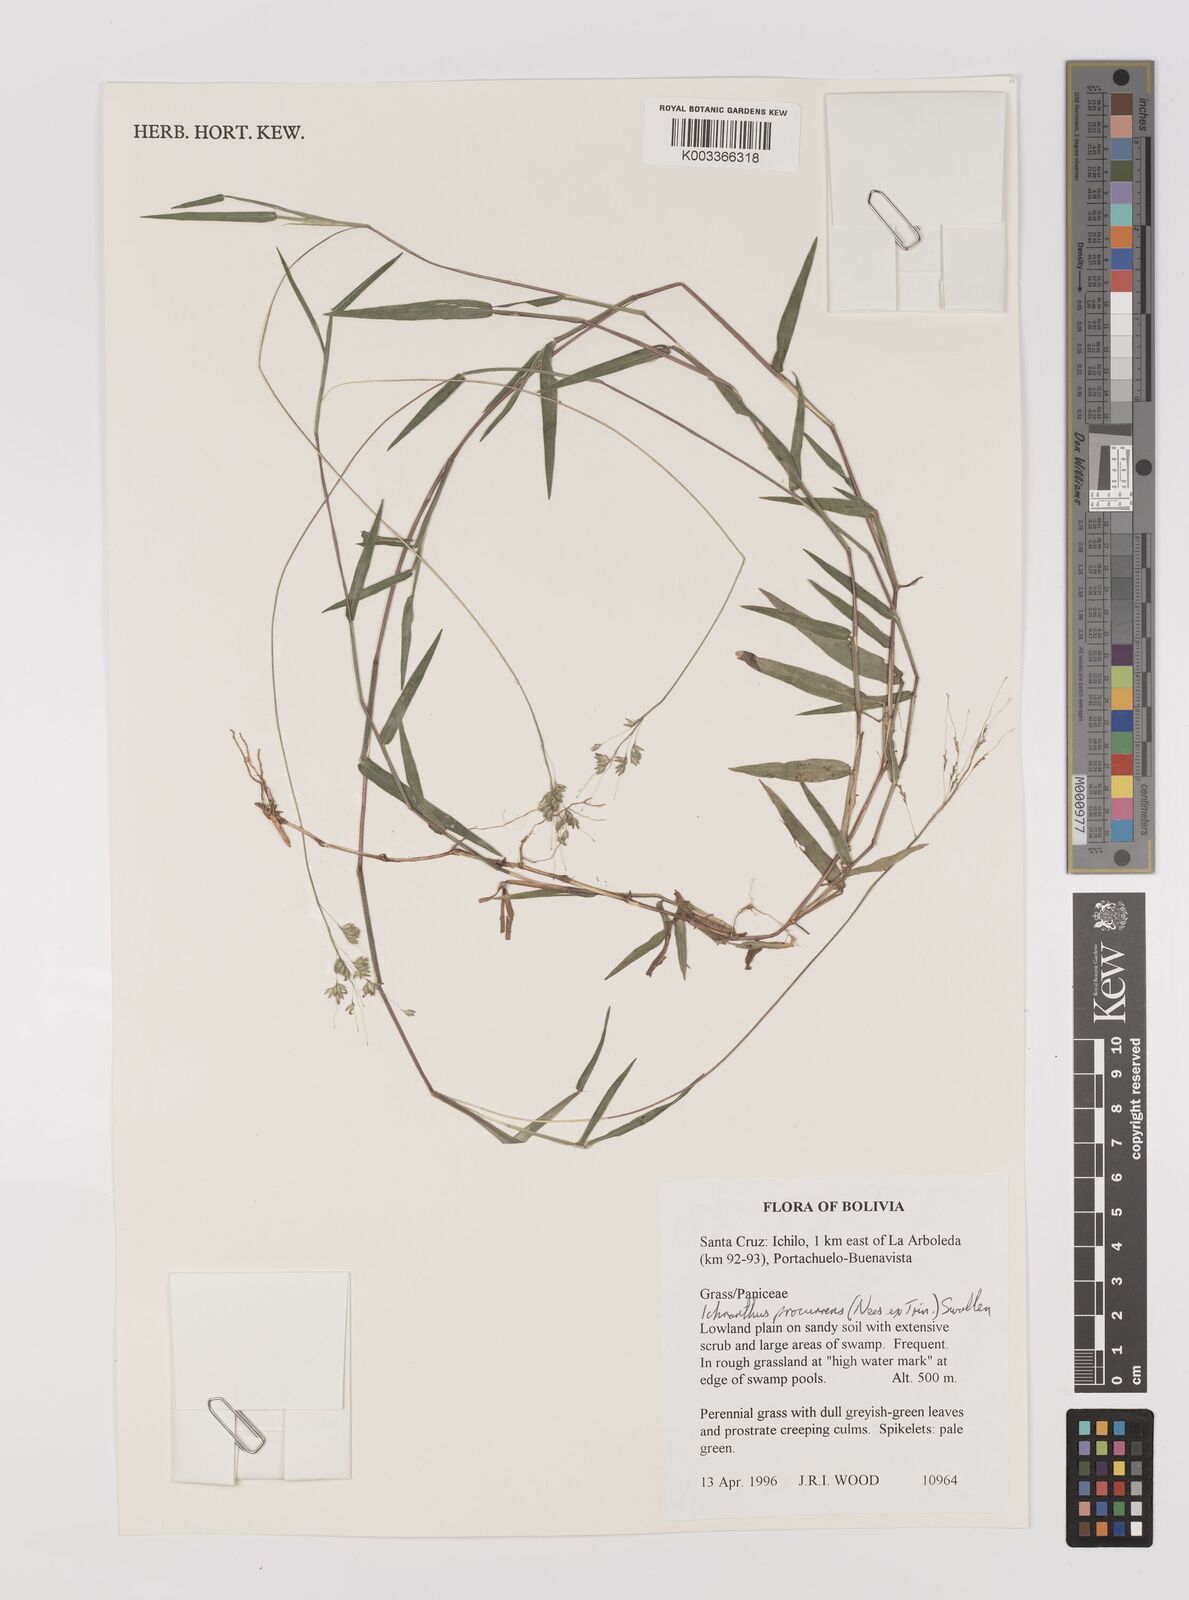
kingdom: Plantae
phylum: Tracheophyta
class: Liliopsida
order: Poales
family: Poaceae
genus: Oedochloa
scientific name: Oedochloa procurrens
